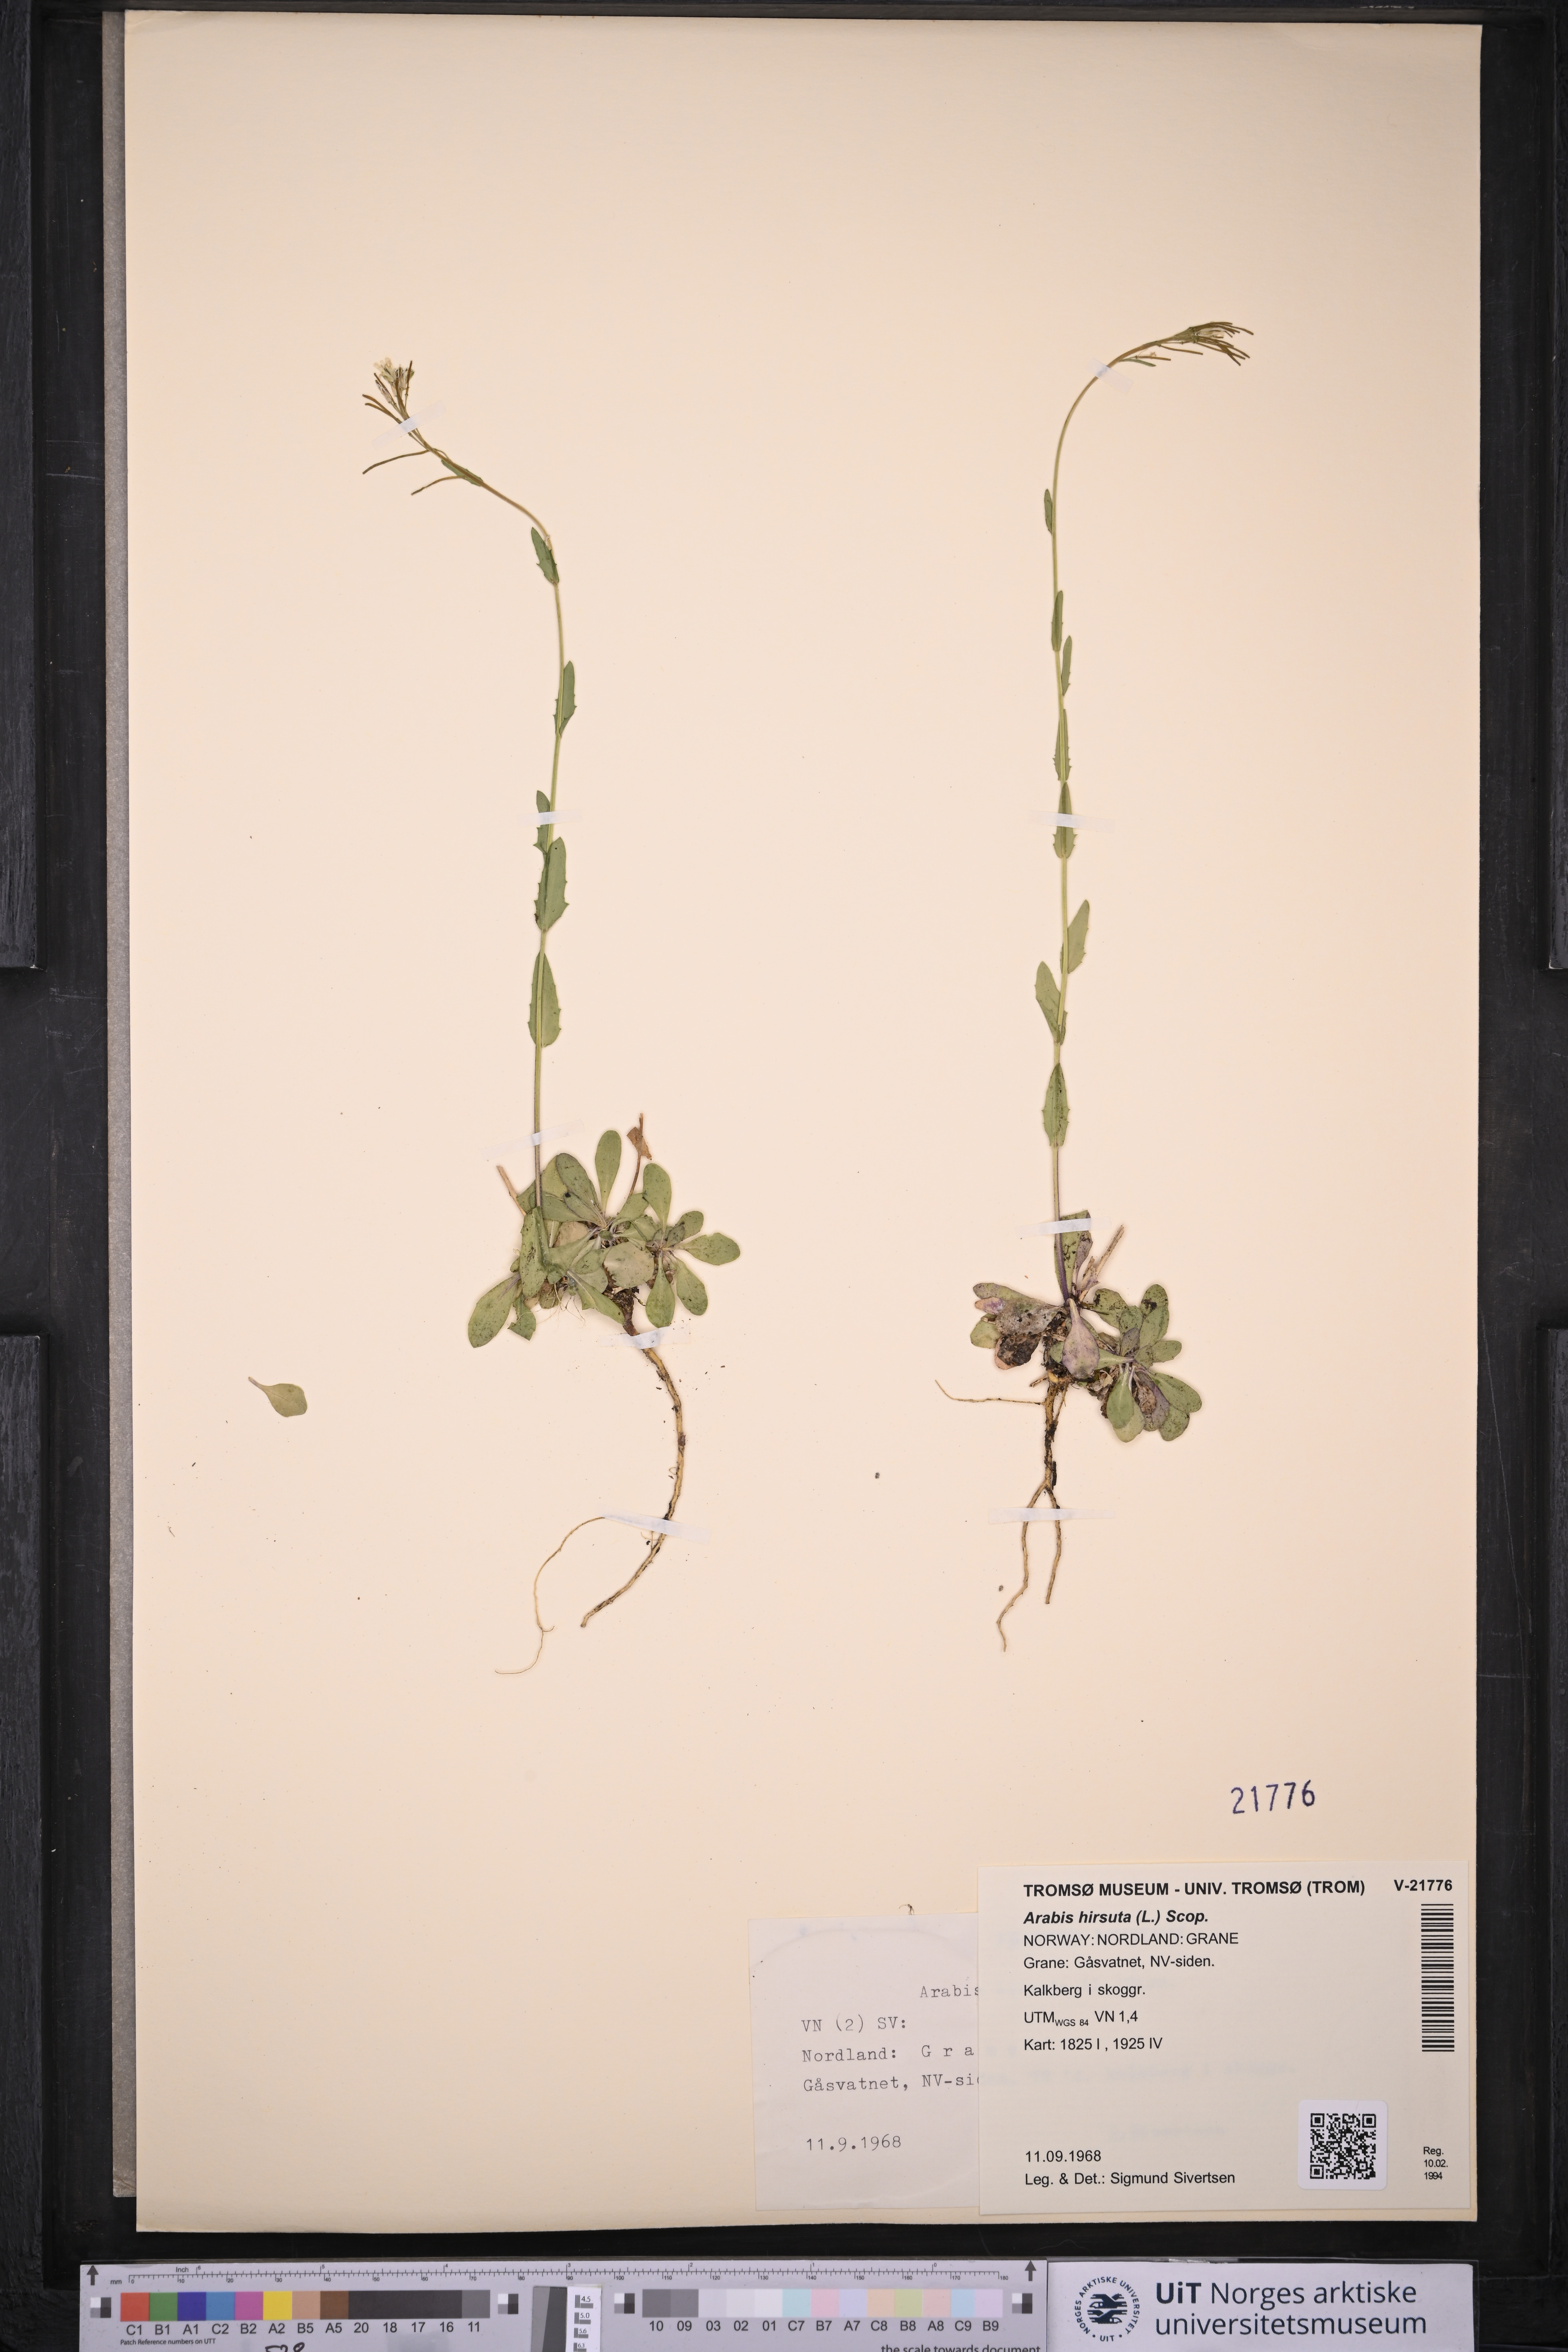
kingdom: Plantae
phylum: Tracheophyta
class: Magnoliopsida
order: Brassicales
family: Brassicaceae
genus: Arabis
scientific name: Arabis hirsuta
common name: Hairy rock-cress
